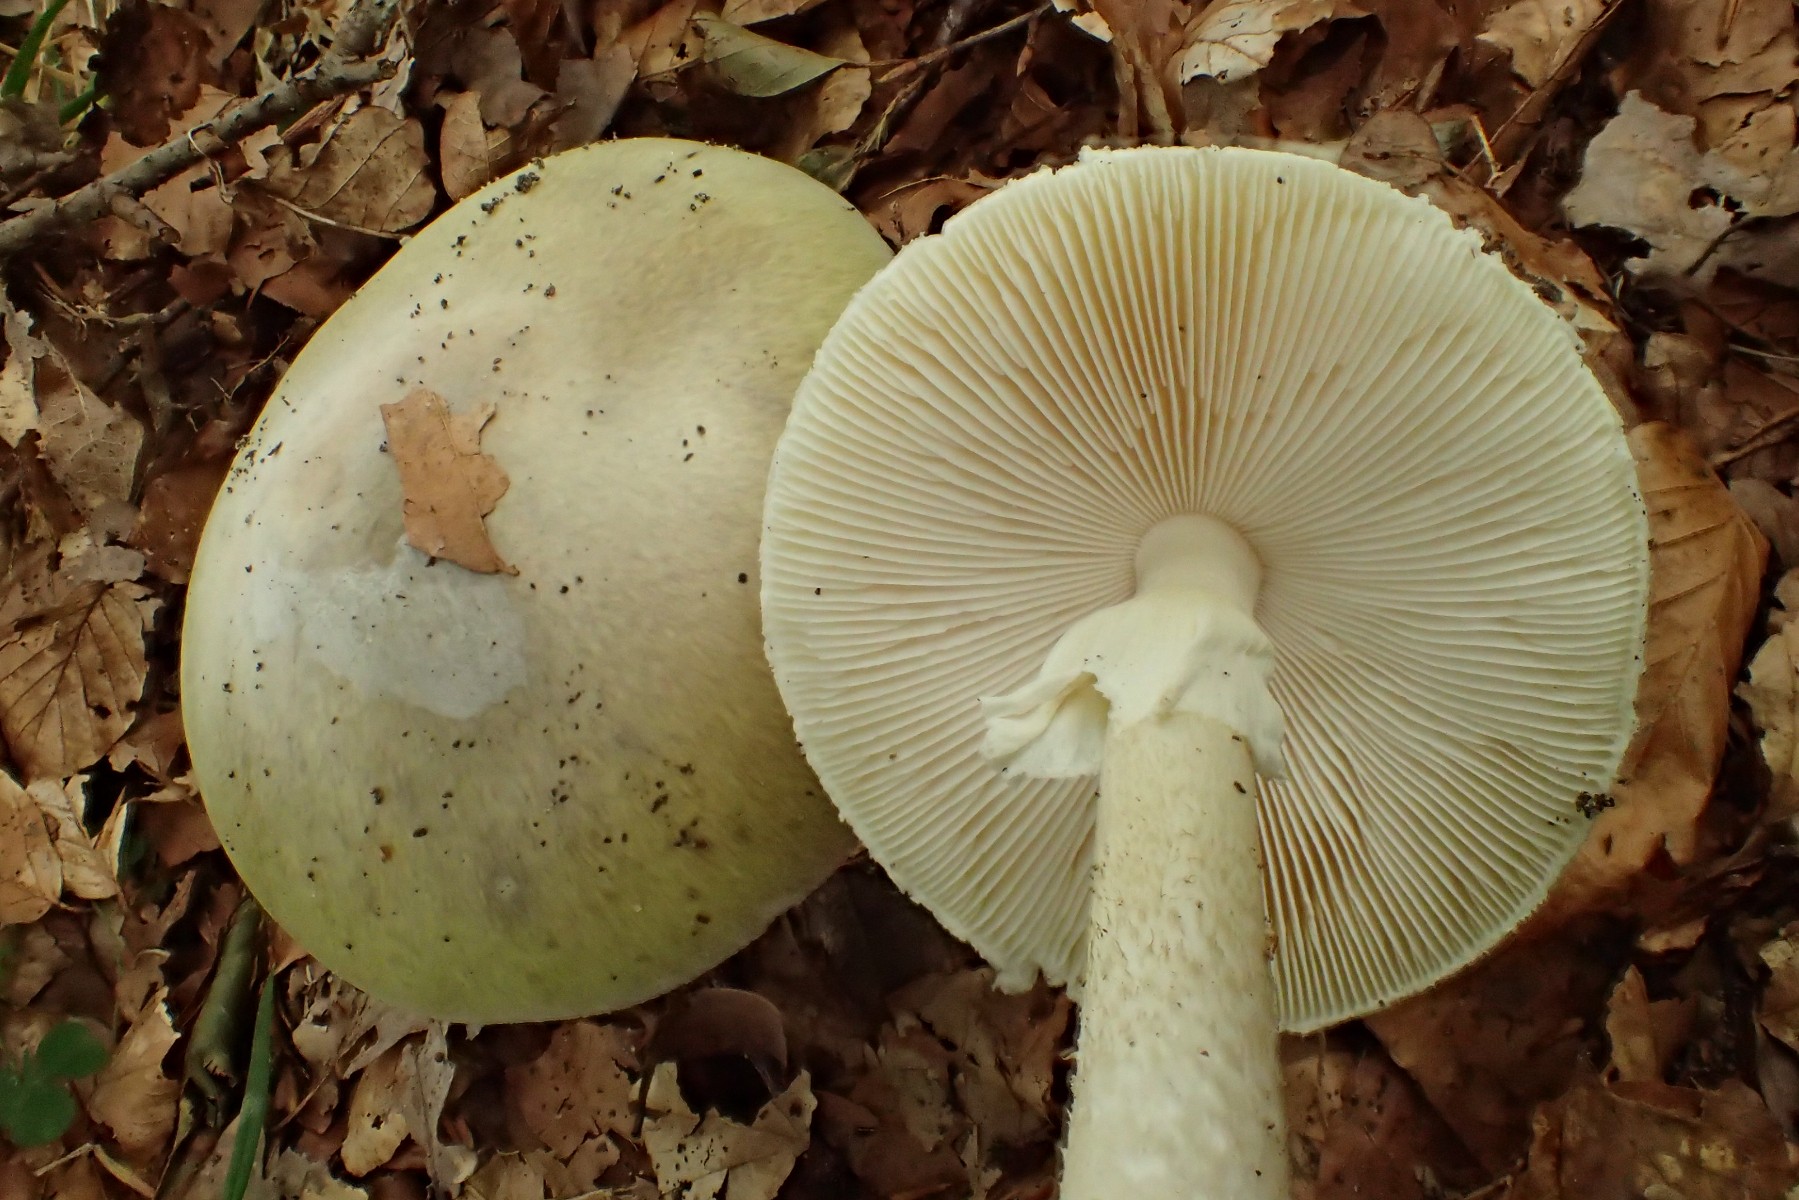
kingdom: Fungi
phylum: Basidiomycota
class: Agaricomycetes
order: Agaricales
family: Amanitaceae
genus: Amanita
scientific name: Amanita phalloides
